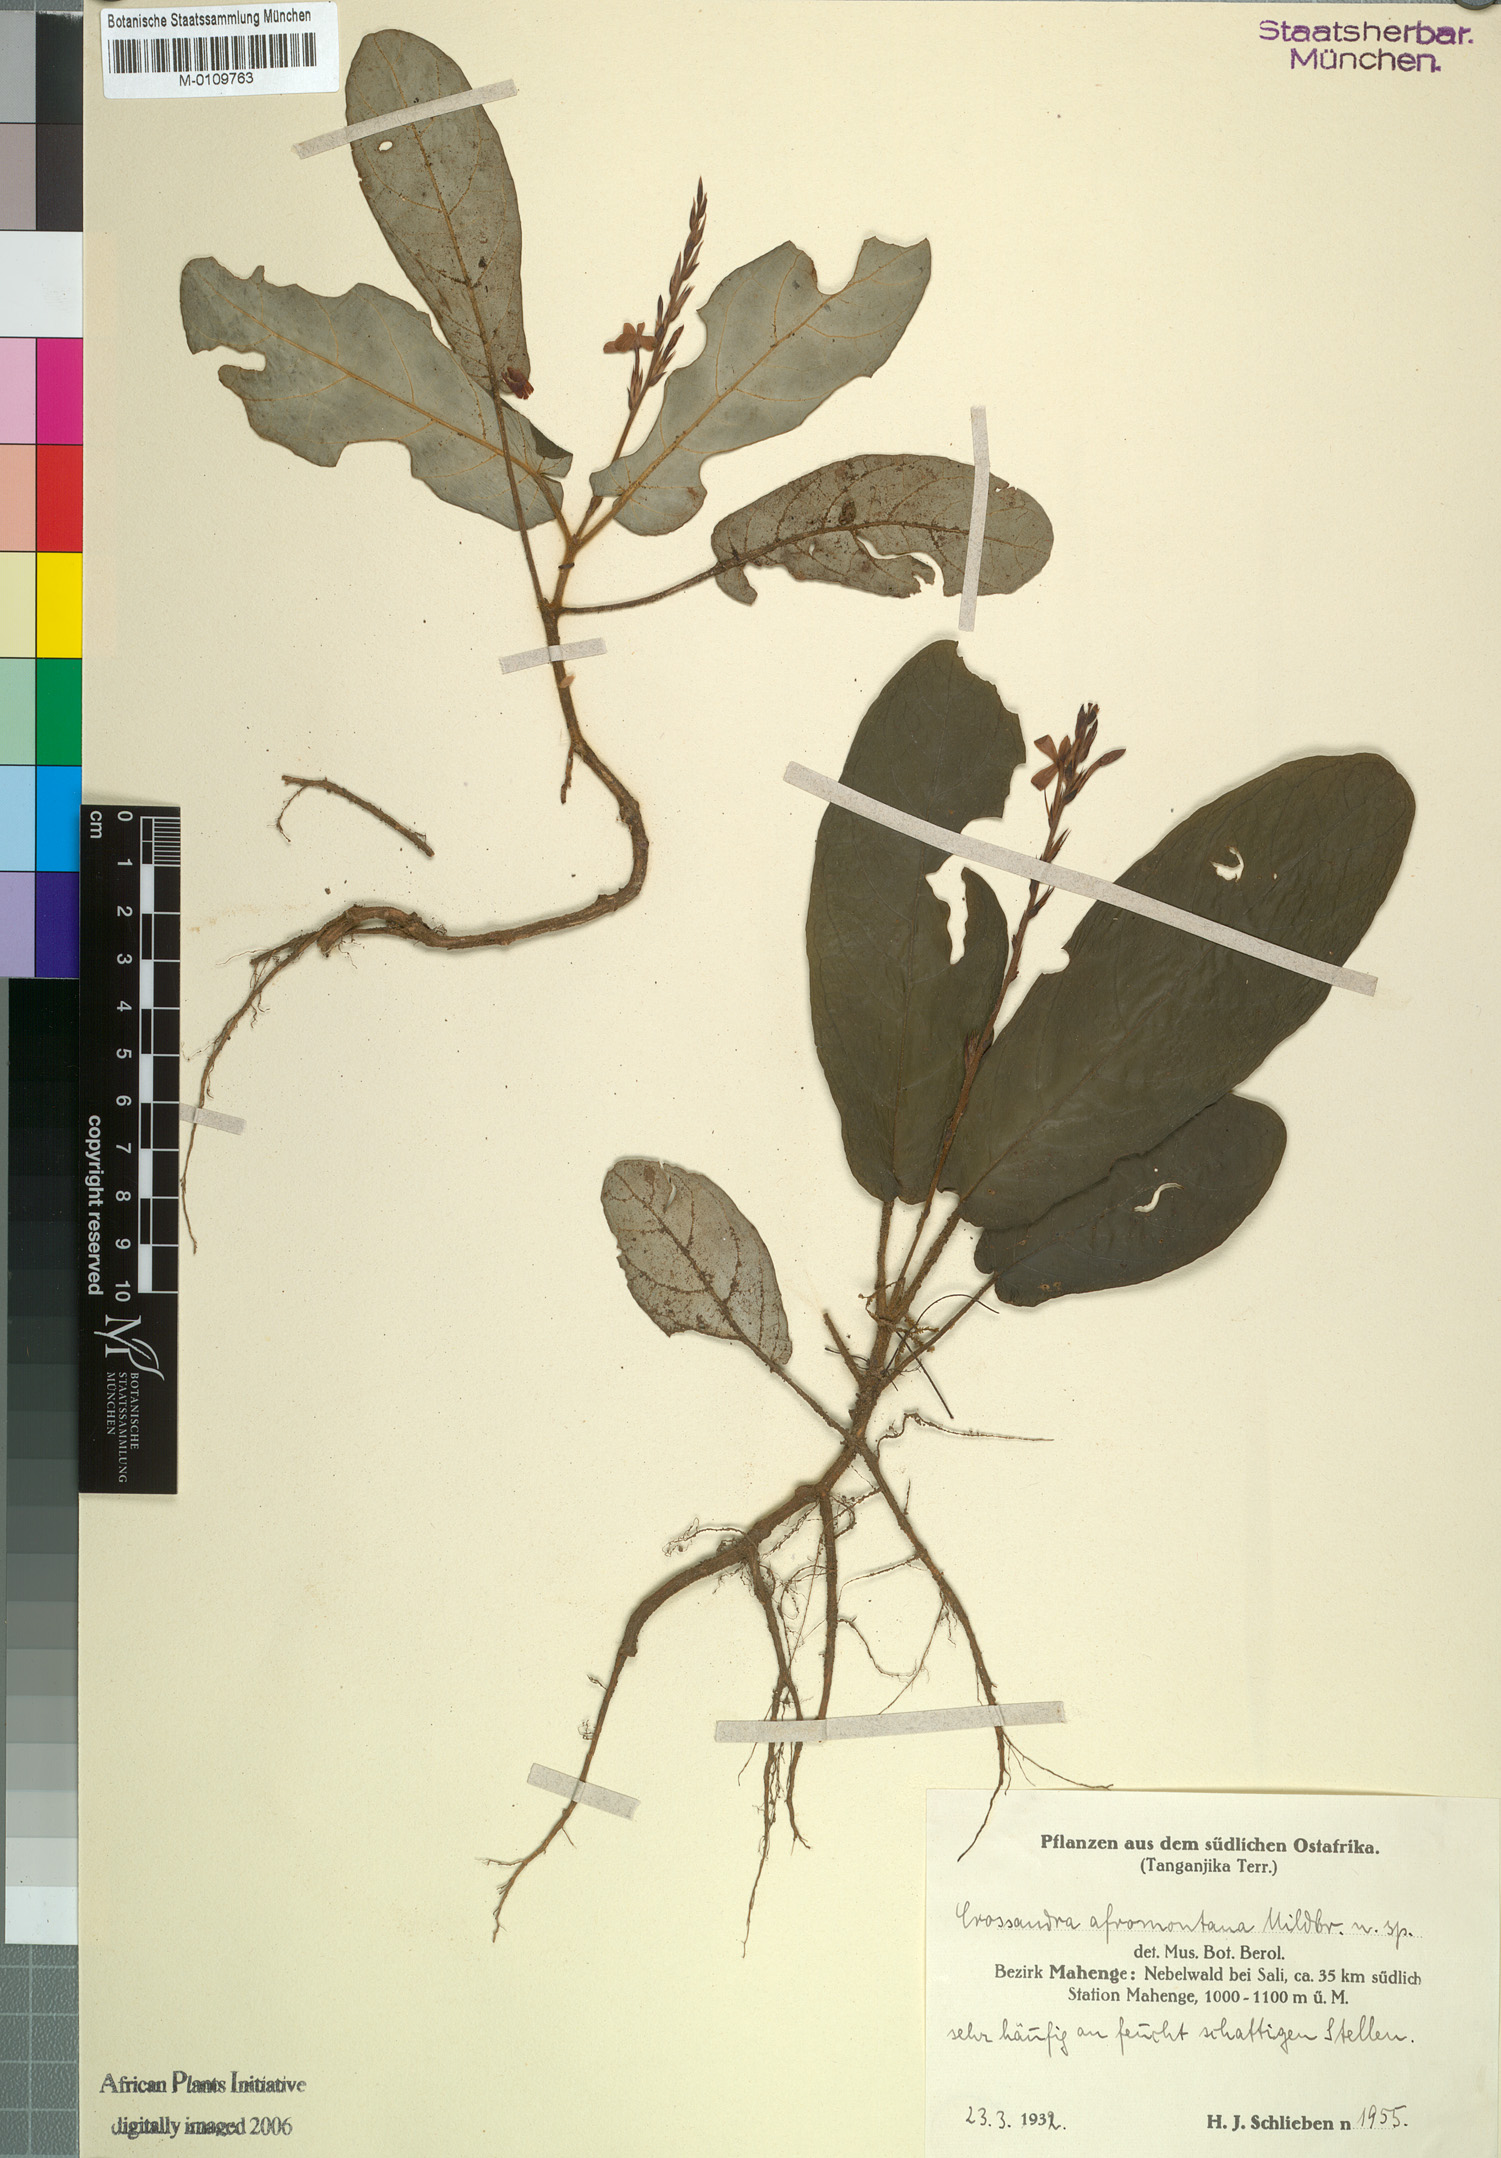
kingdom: Plantae
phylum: Tracheophyta
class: Magnoliopsida
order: Lamiales
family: Acanthaceae
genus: Stenandriopsis
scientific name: Stenandriopsis afromontana
